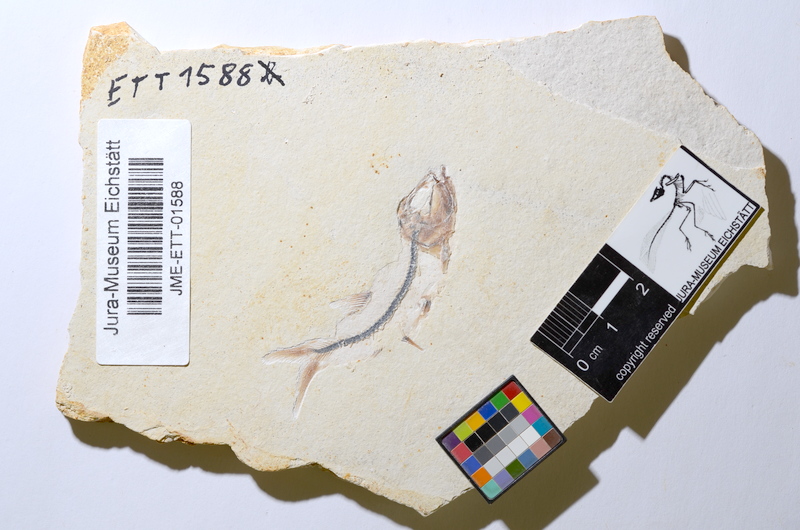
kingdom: Animalia
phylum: Chordata
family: Ascalaboidae
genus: Ebertichthys
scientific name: Ebertichthys ettlingensis
